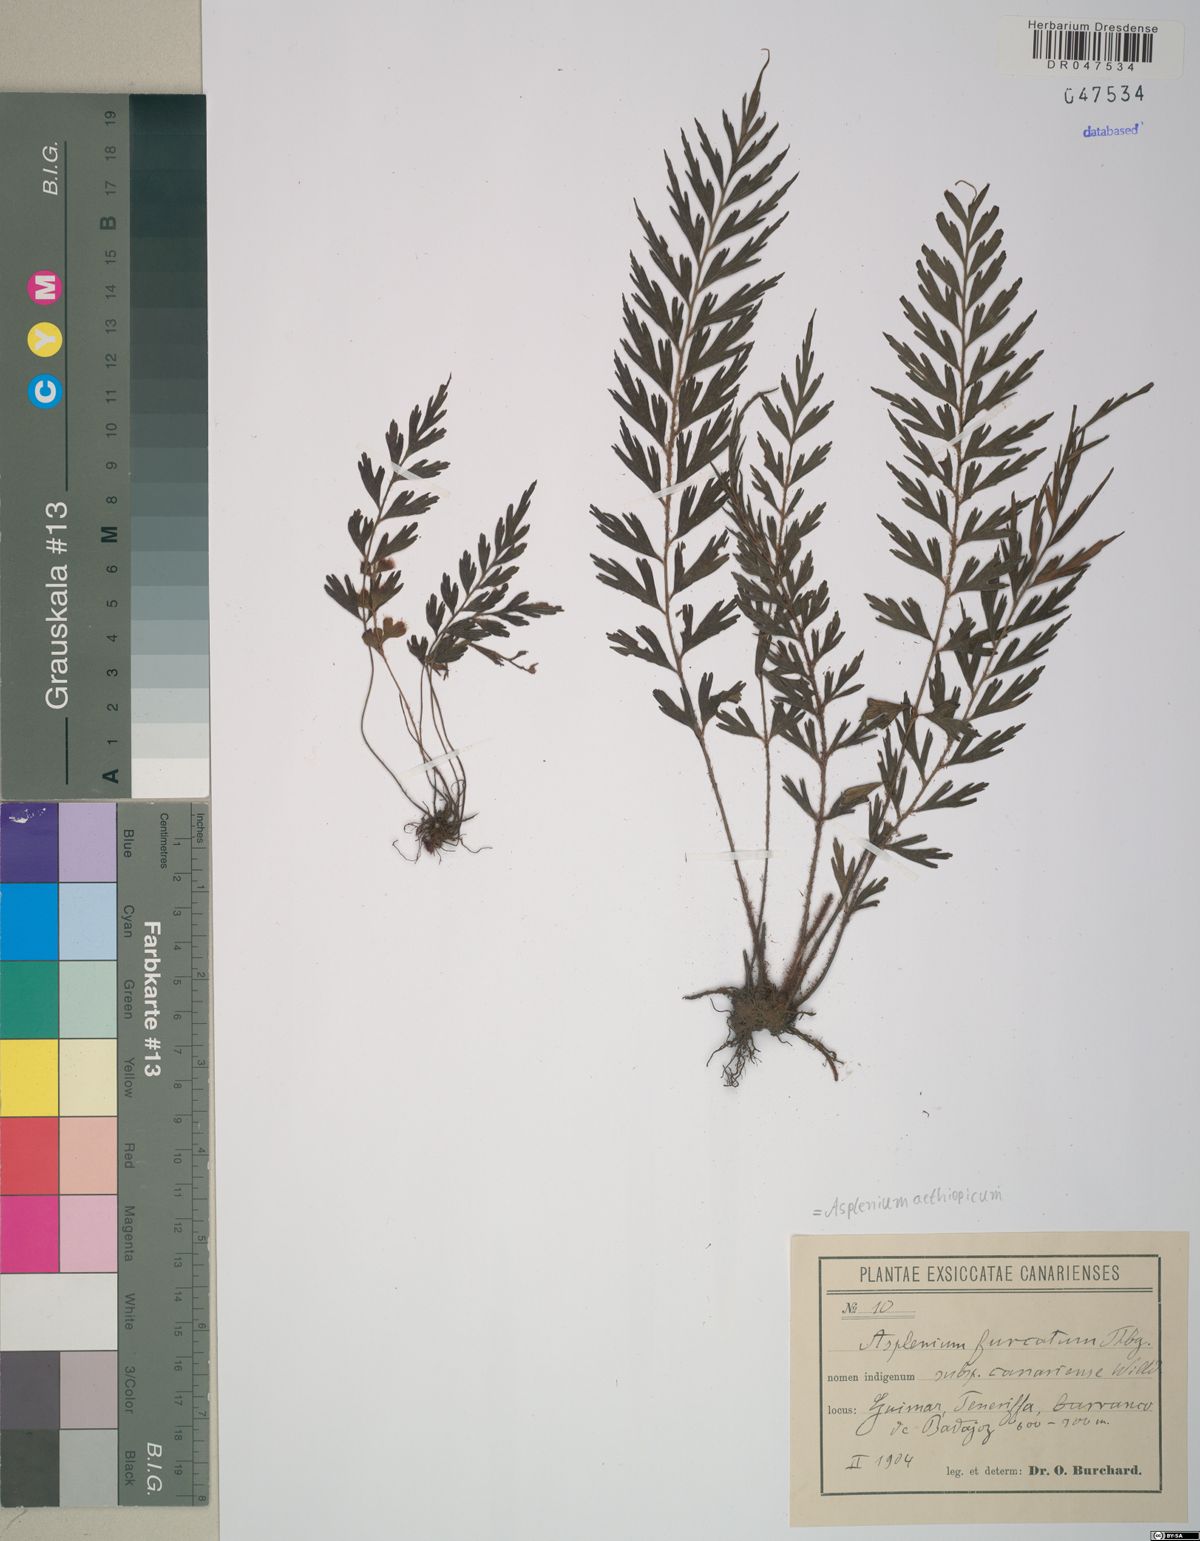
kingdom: Plantae
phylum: Tracheophyta
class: Polypodiopsida
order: Polypodiales
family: Aspleniaceae
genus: Asplenium
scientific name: Asplenium aethiopicum
